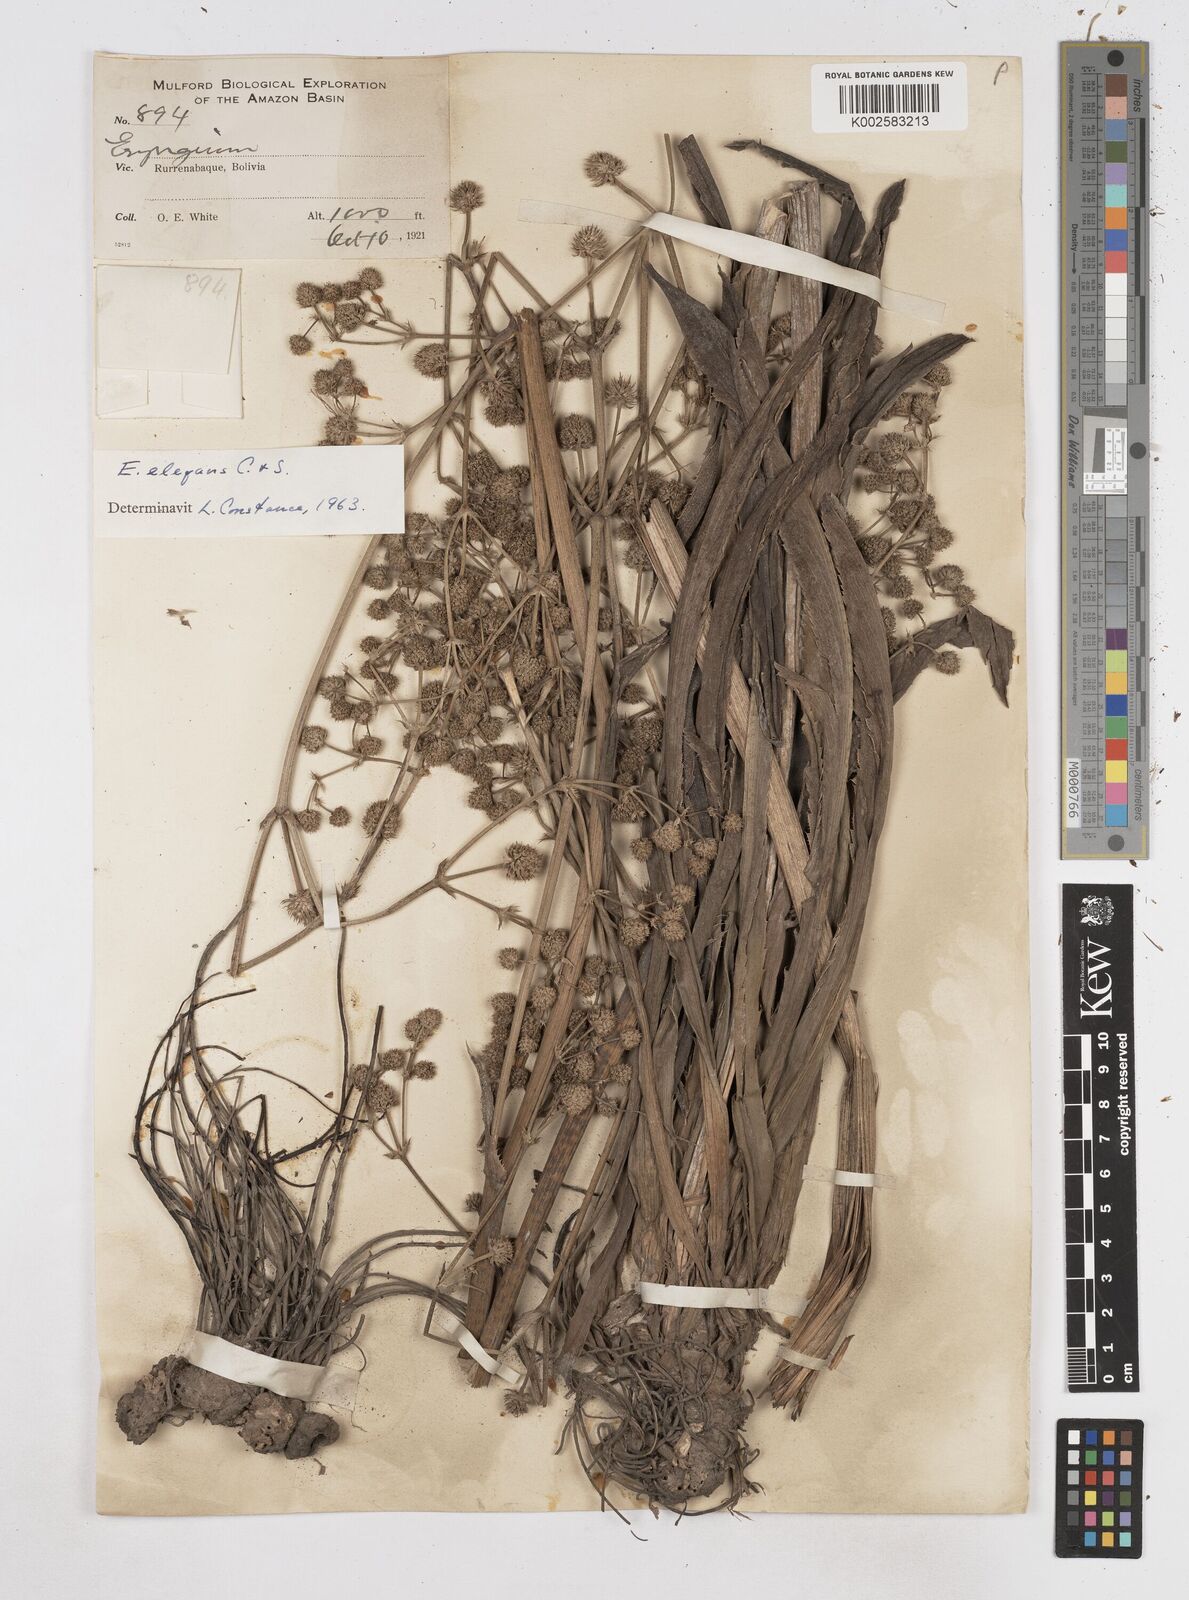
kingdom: Plantae
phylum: Tracheophyta
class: Magnoliopsida
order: Apiales
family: Apiaceae
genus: Eryngium
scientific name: Eryngium elegans
